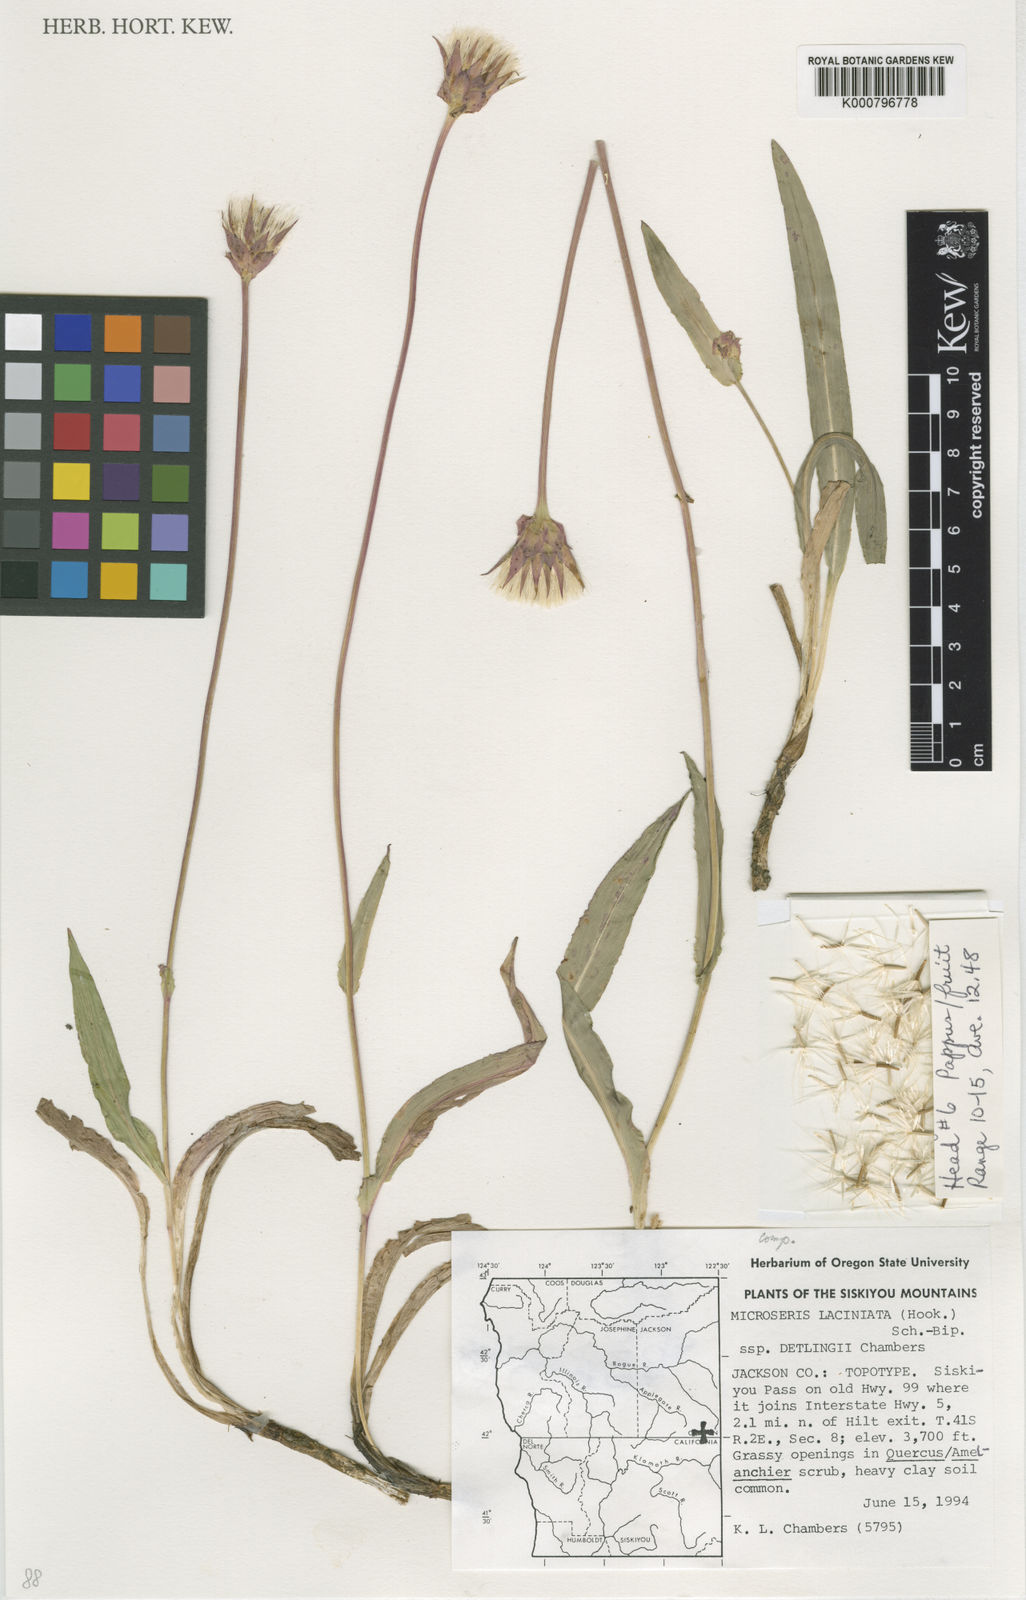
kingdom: Plantae
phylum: Tracheophyta
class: Magnoliopsida
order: Asterales
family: Asteraceae
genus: Microseris
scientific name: Microseris laciniata
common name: Cut-leaf microseris
